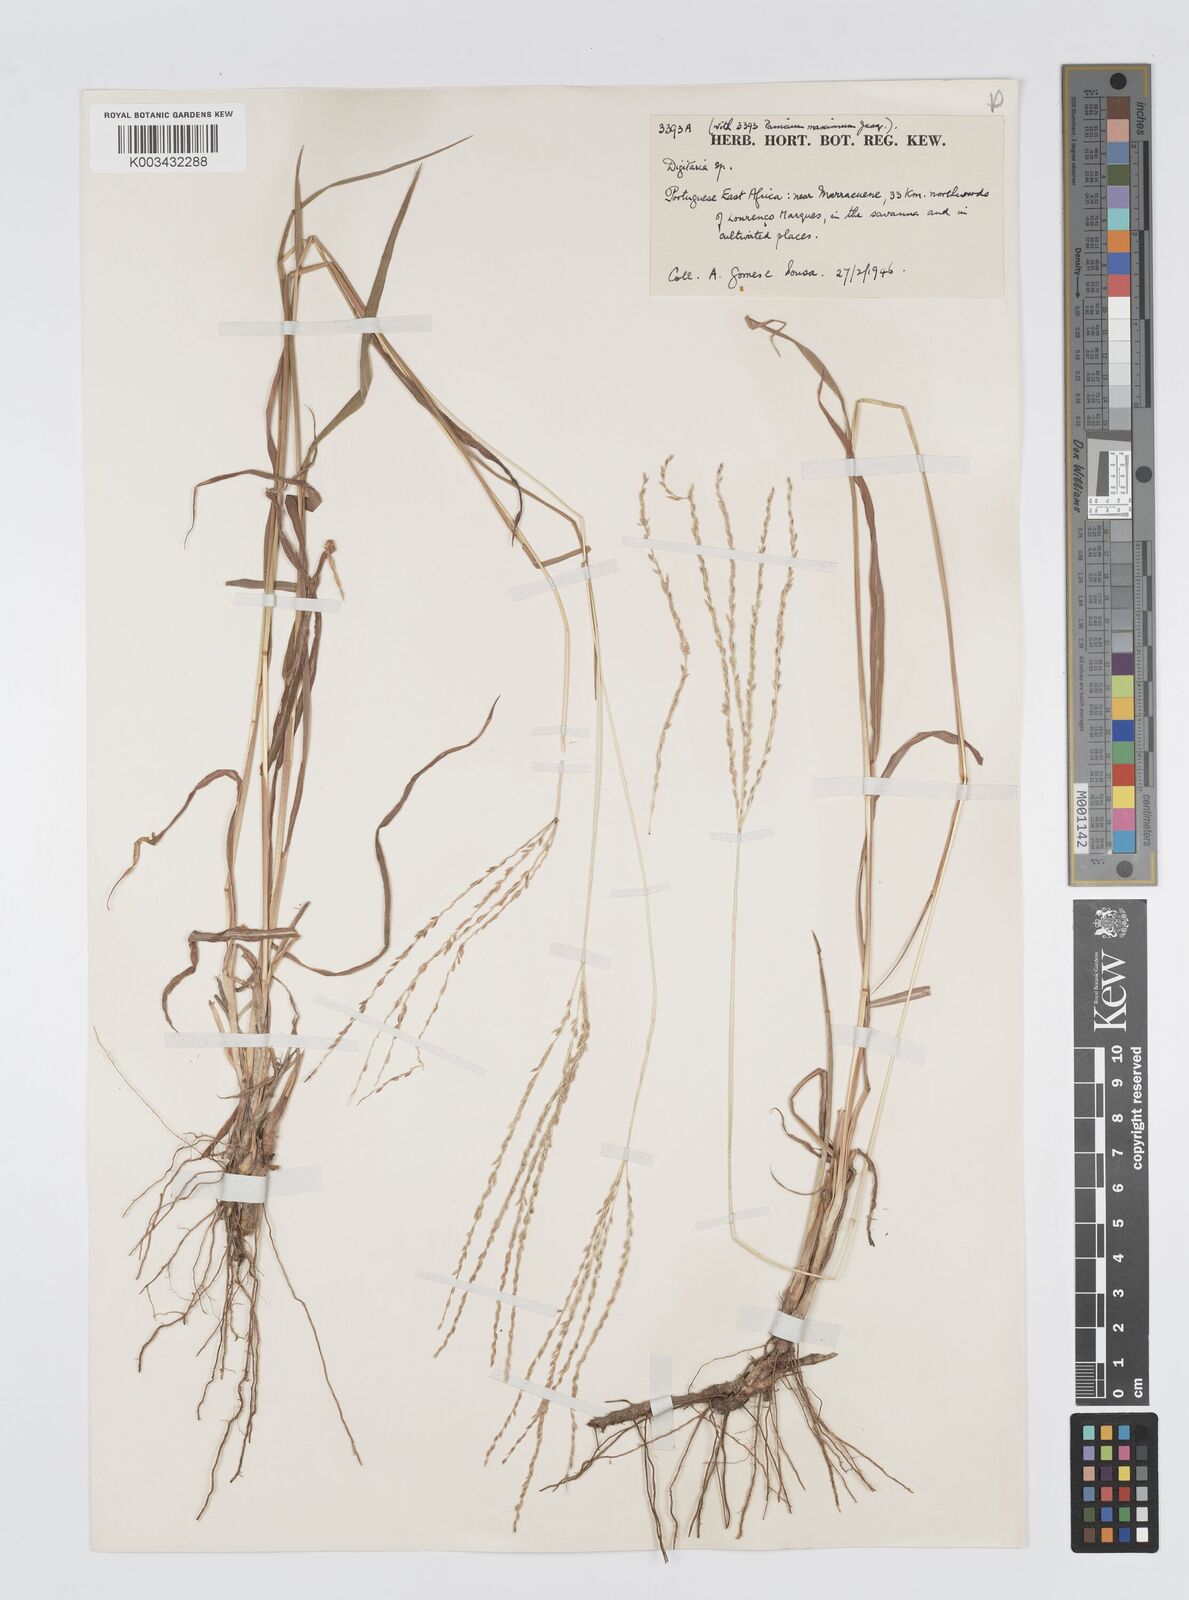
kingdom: Plantae
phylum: Tracheophyta
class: Liliopsida
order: Poales
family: Poaceae
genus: Digitaria
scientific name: Digitaria seriata
